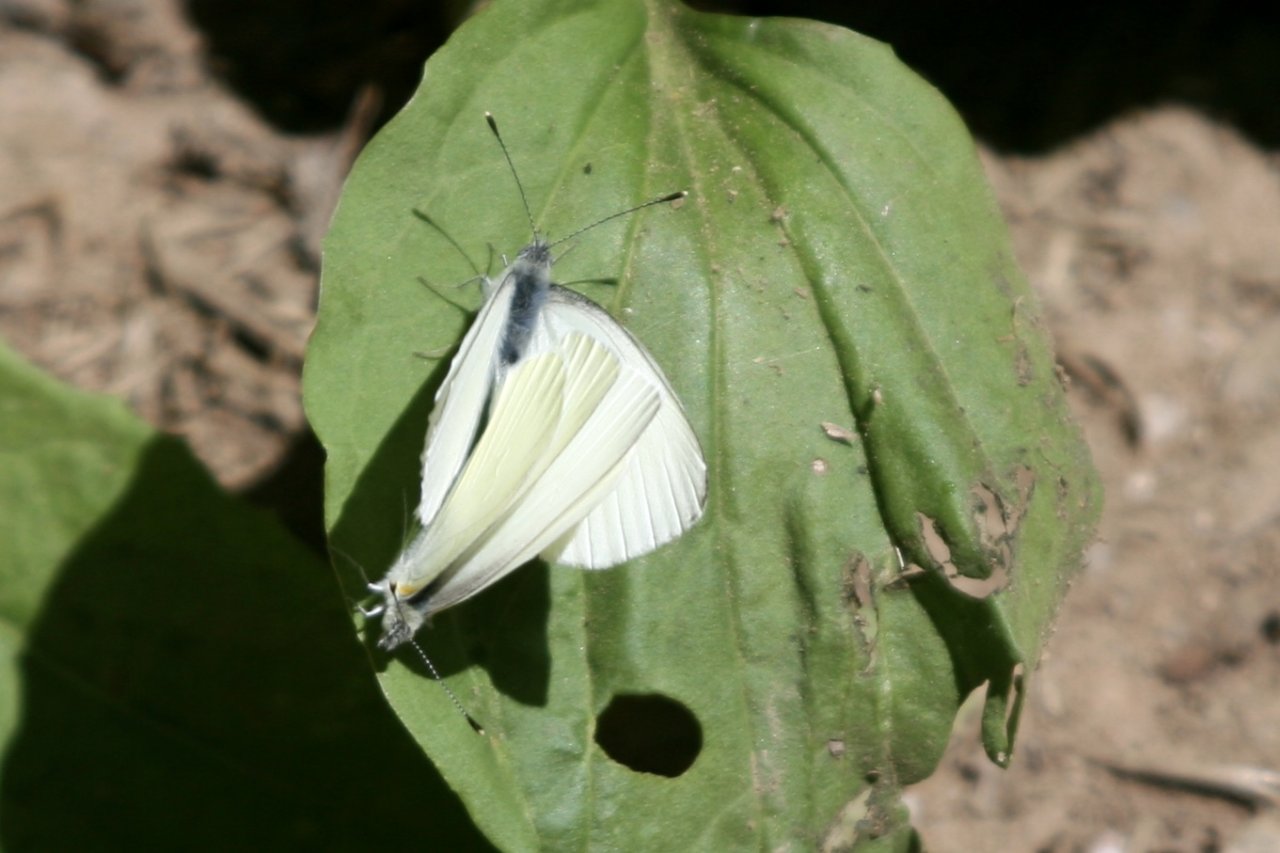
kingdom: Animalia
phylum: Arthropoda
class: Insecta
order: Lepidoptera
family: Pieridae
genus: Pieris
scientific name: Pieris oleracea
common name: Mustard White
